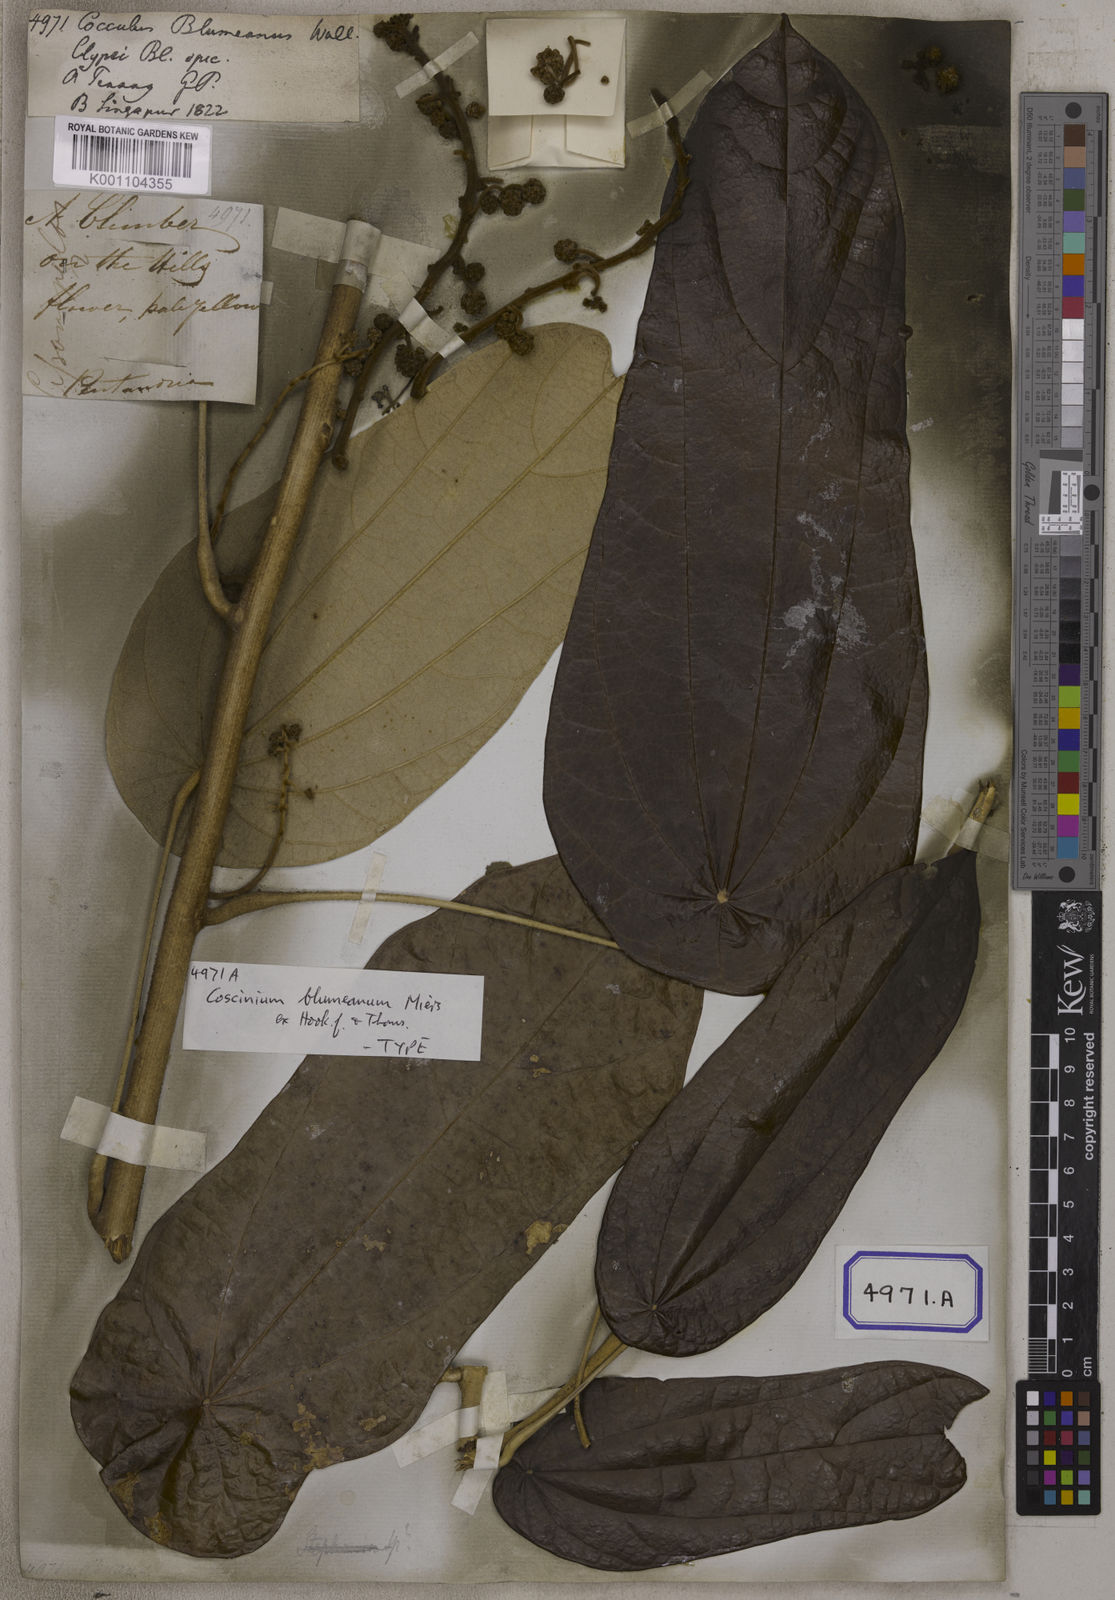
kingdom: Plantae
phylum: Tracheophyta
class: Magnoliopsida
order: Ranunculales
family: Menispermaceae
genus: Cocculus
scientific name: Cocculus
